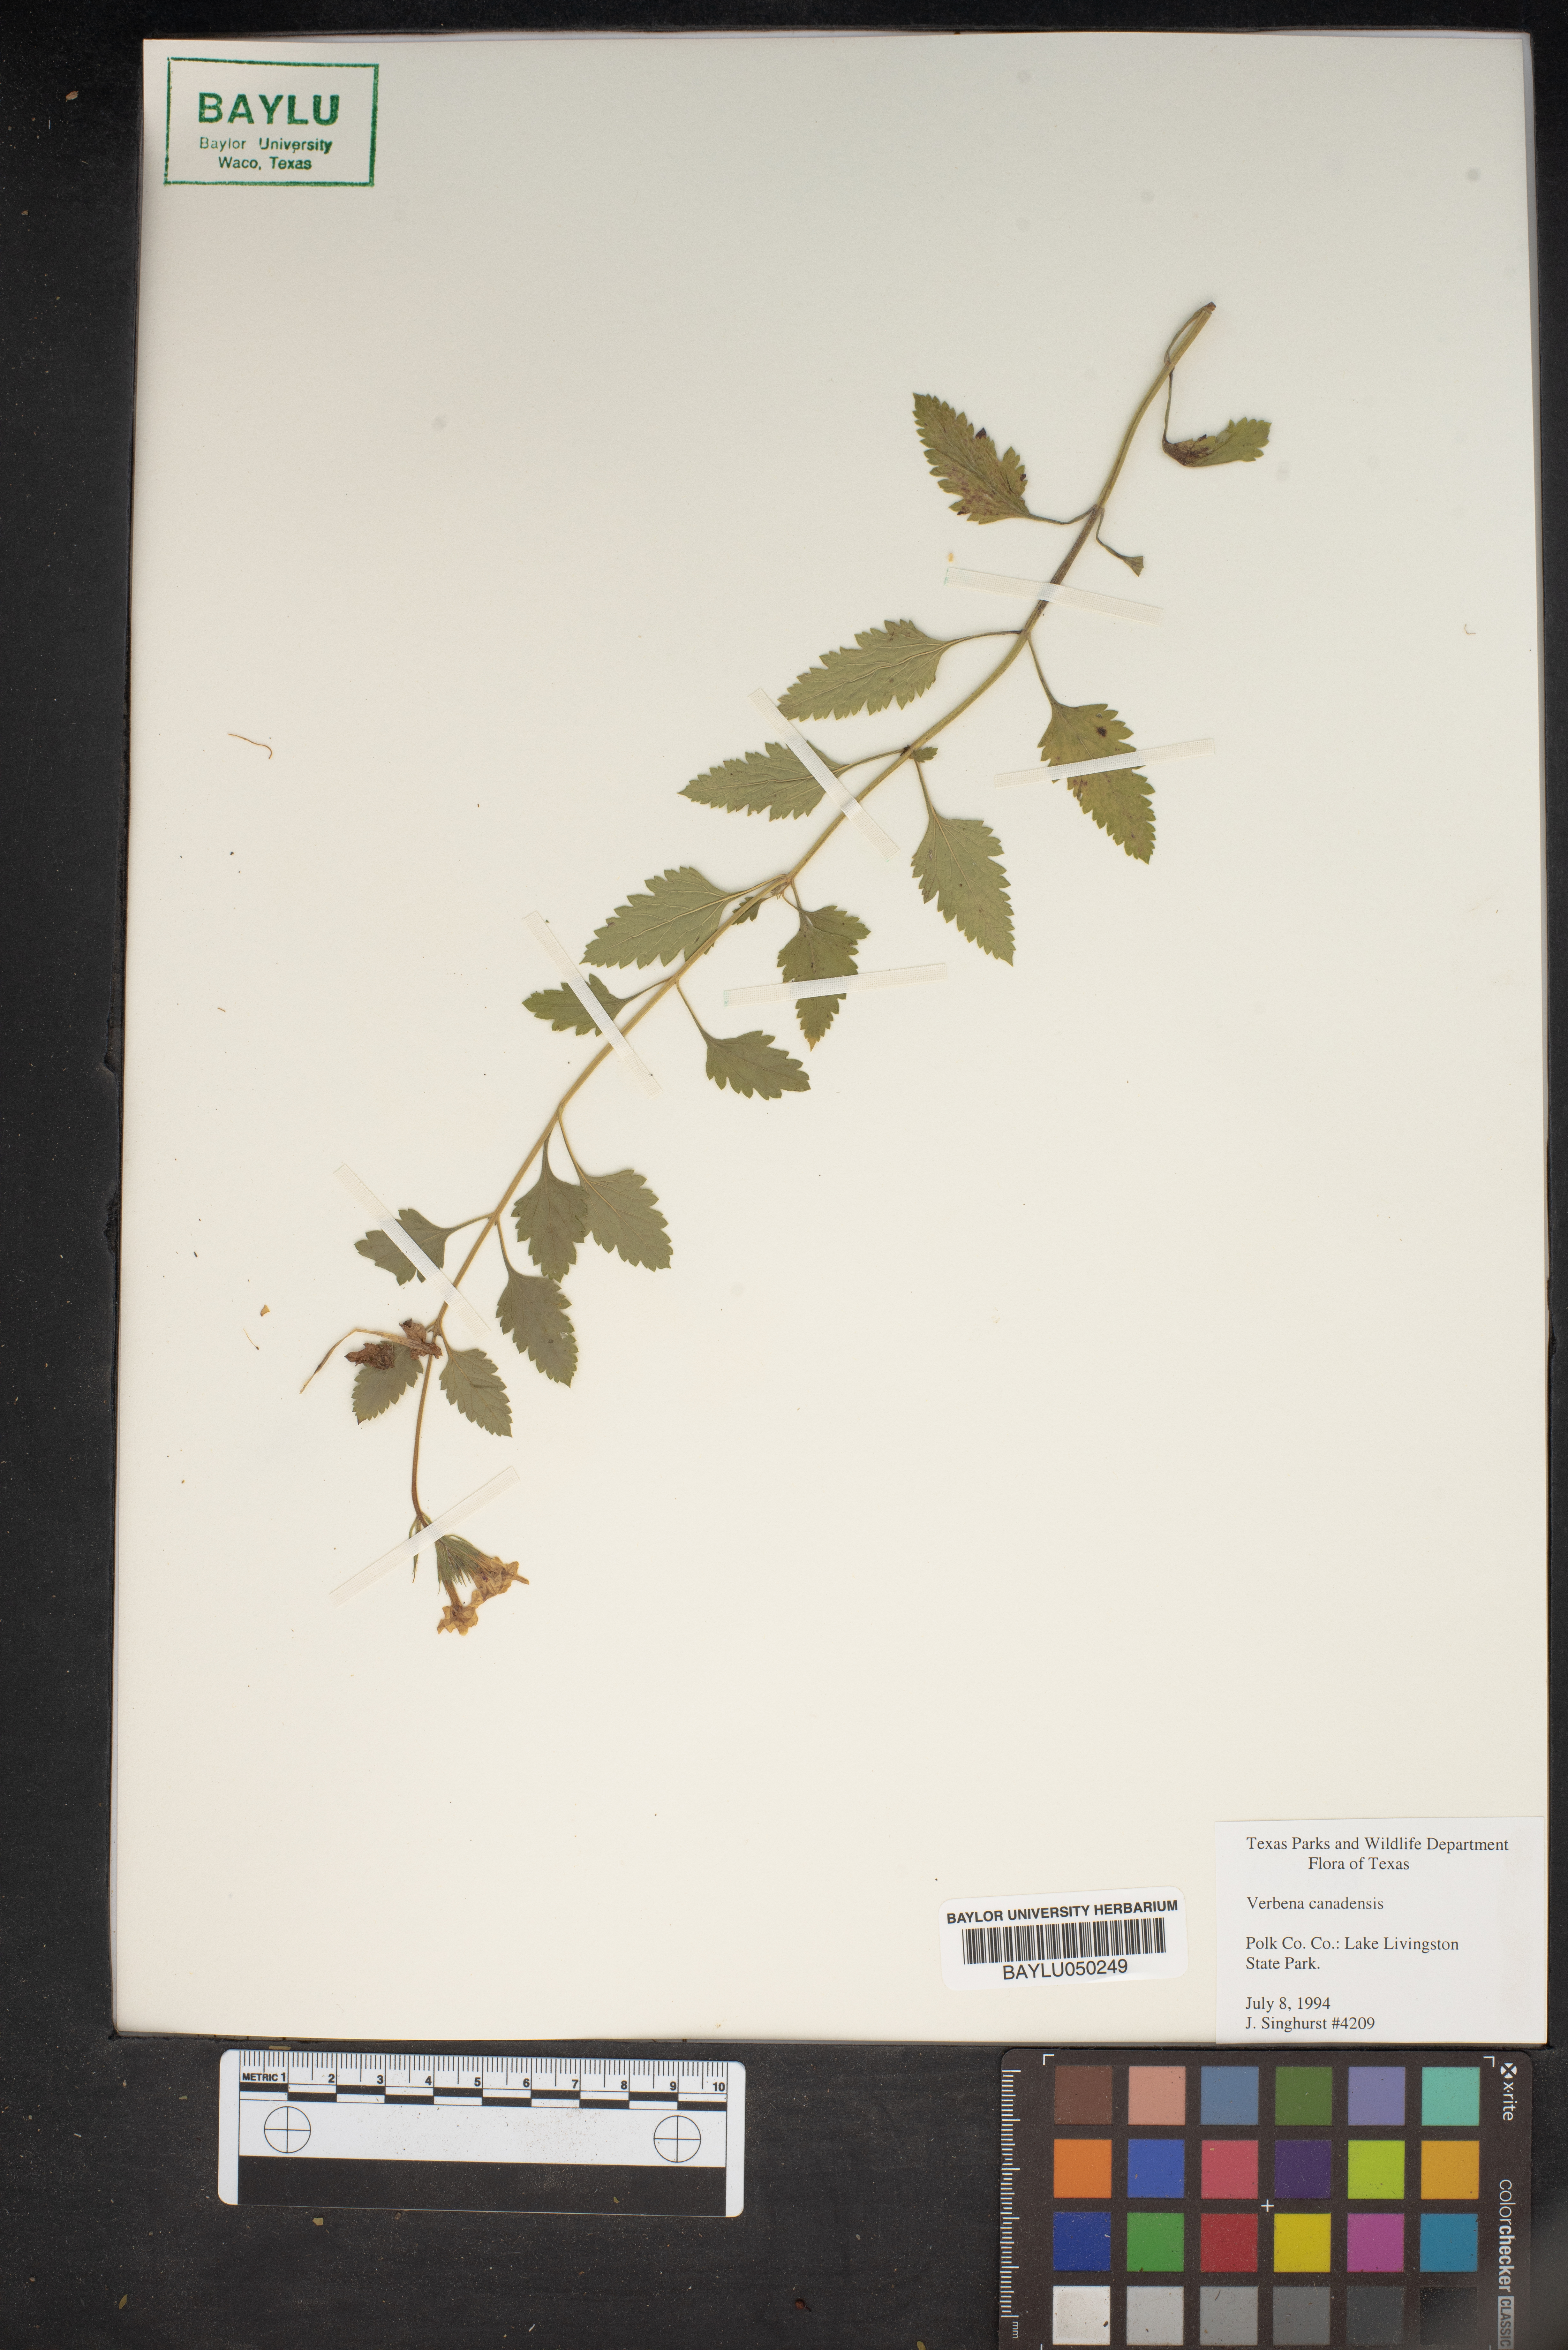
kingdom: Plantae
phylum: Tracheophyta
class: Magnoliopsida
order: Lamiales
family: Verbenaceae
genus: Verbena
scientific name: Verbena canadensis
